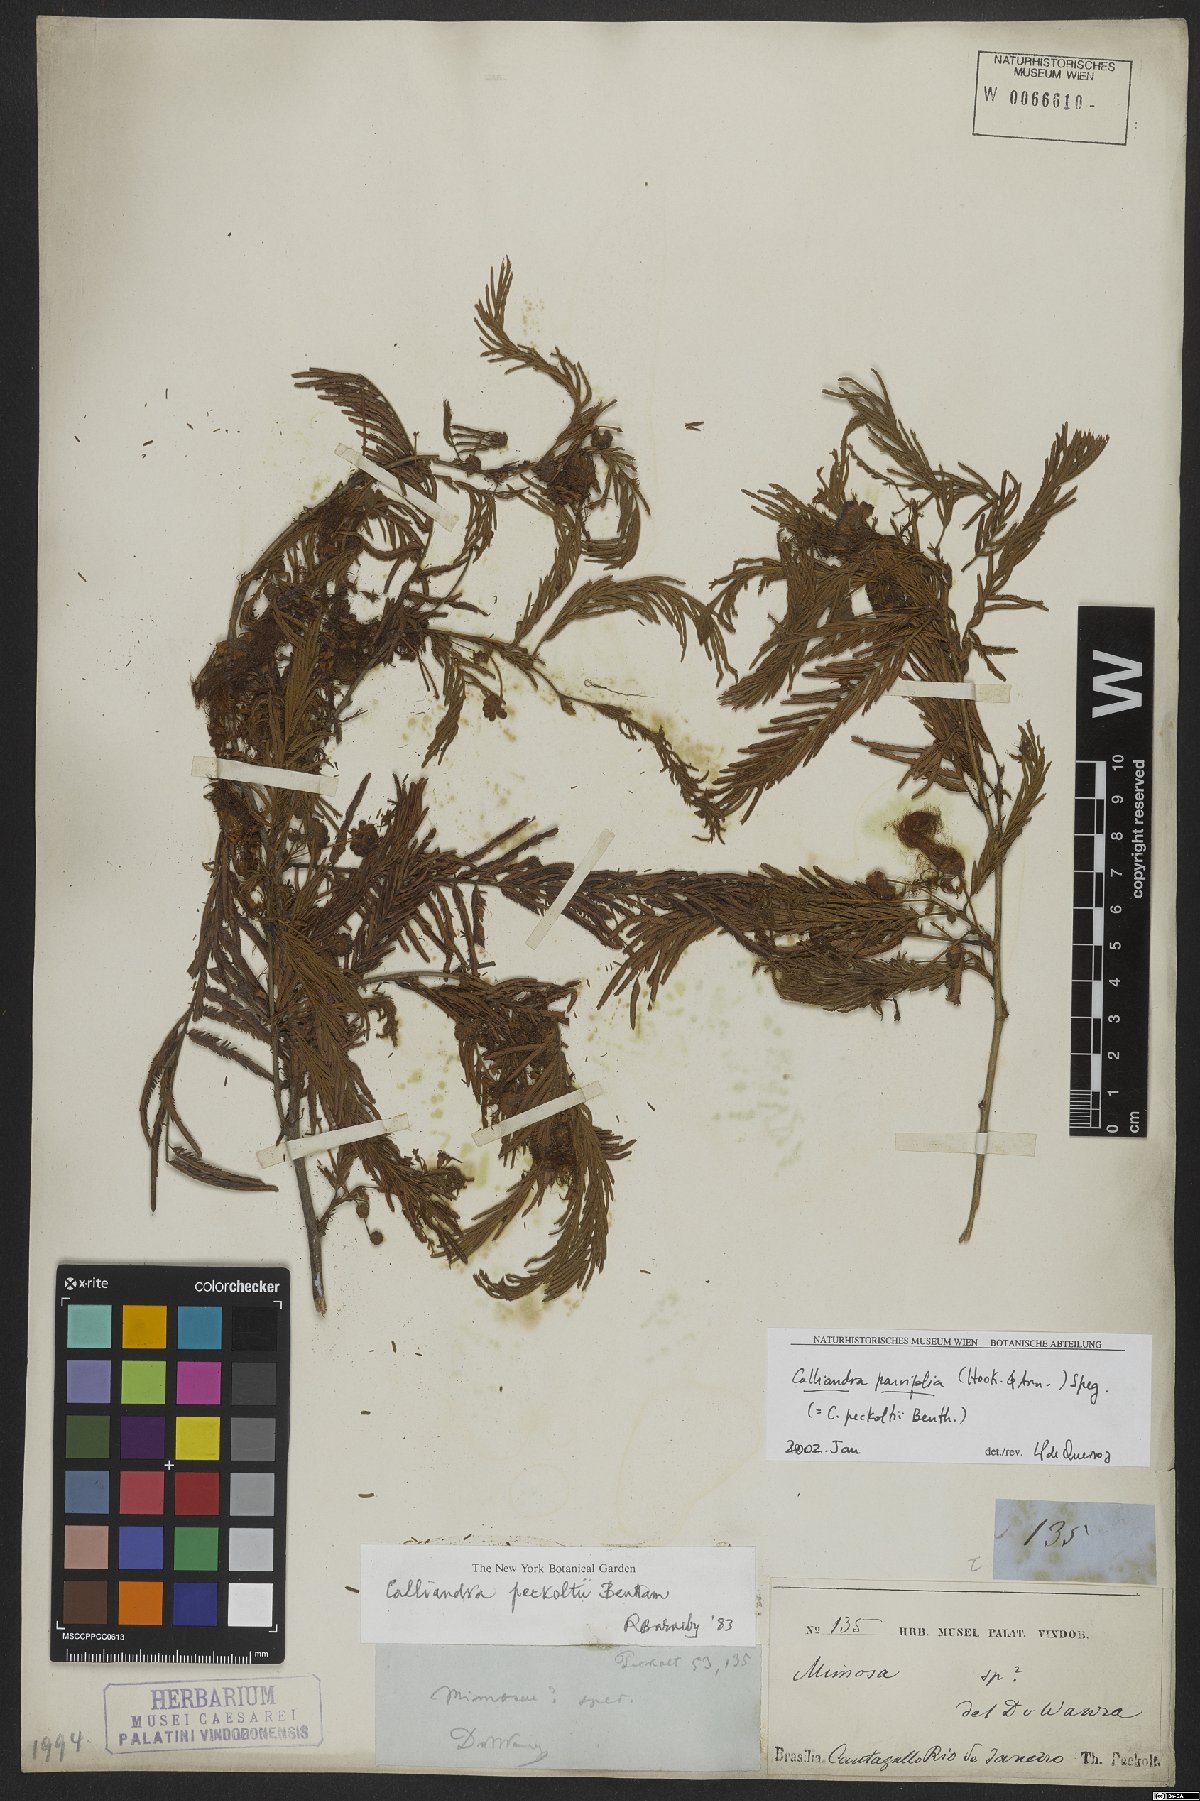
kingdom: Plantae
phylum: Tracheophyta
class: Magnoliopsida
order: Fabales
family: Fabaceae
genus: Calliandra
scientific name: Calliandra parviflora
